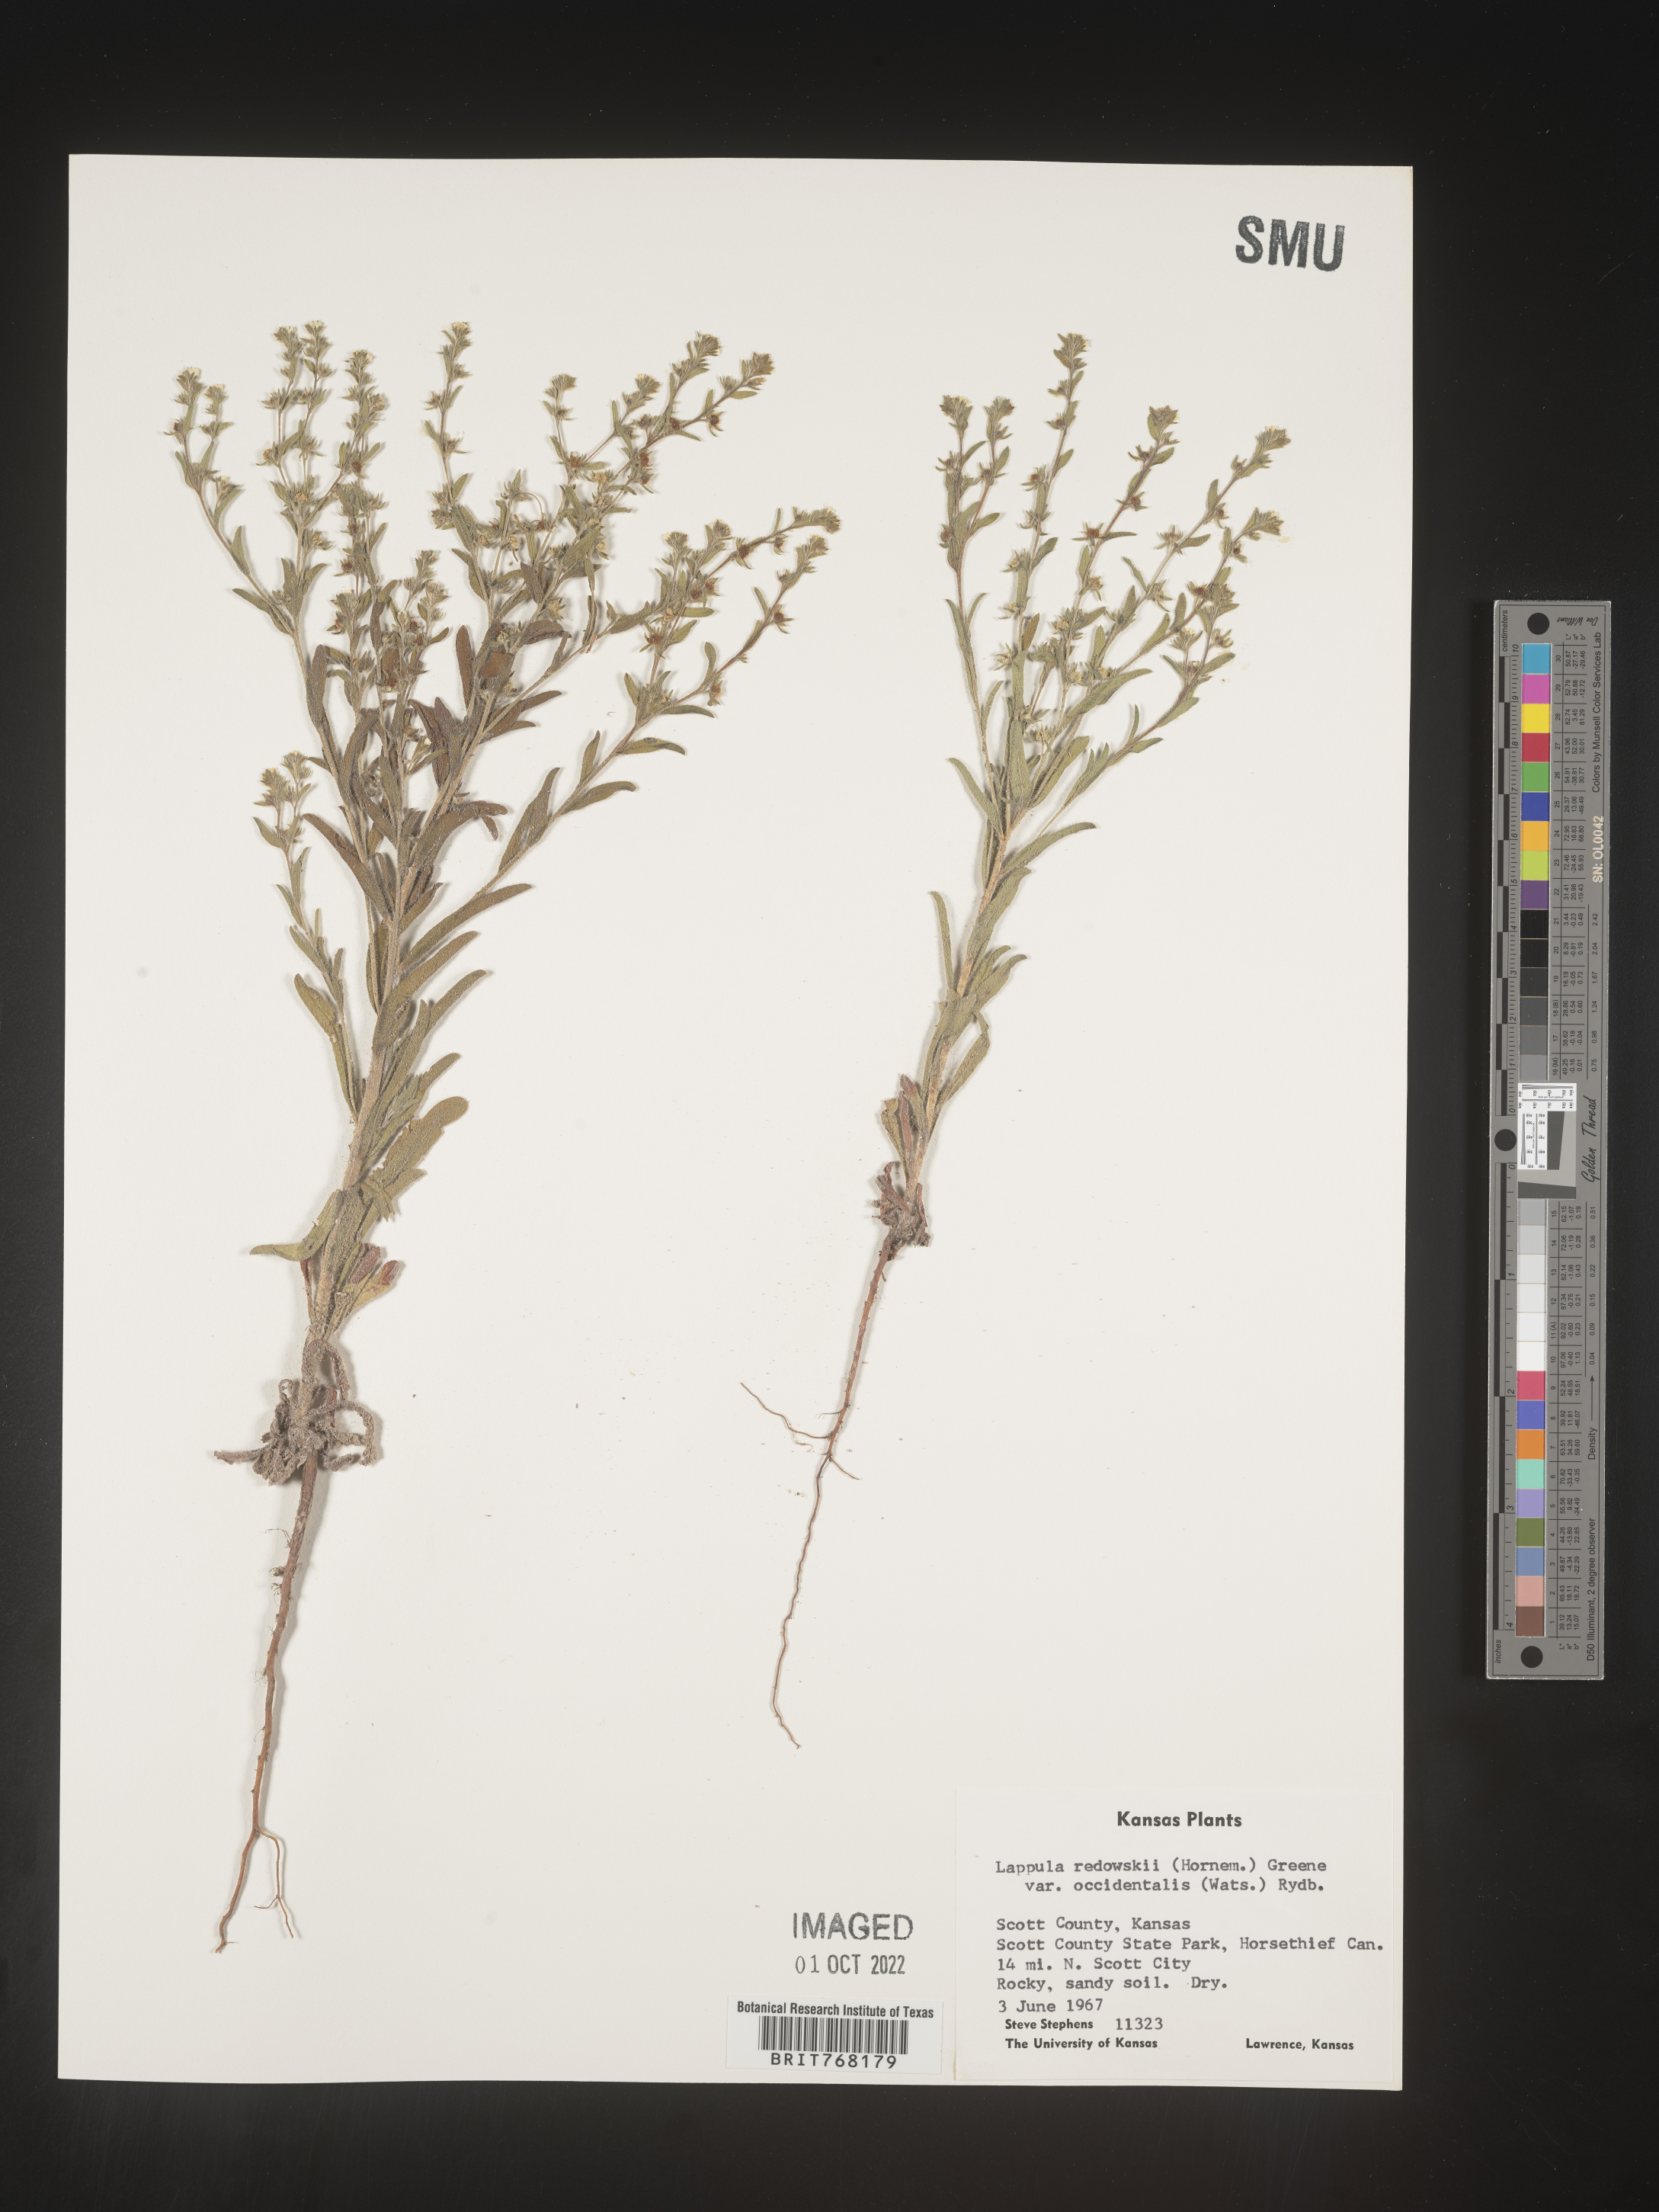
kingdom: Plantae
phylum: Tracheophyta
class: Magnoliopsida
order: Boraginales
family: Boraginaceae
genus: Lappula
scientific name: Lappula redowskii
